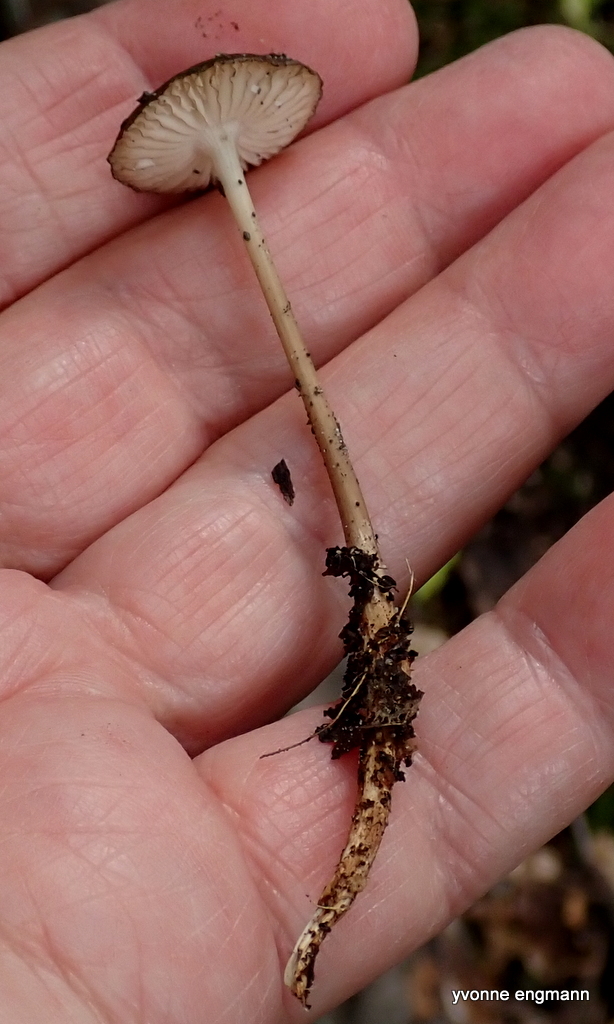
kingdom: Fungi
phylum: Basidiomycota
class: Agaricomycetes
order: Agaricales
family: Physalacriaceae
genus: Hymenopellis
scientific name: Hymenopellis radicata
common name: almindelig pælerodshat
